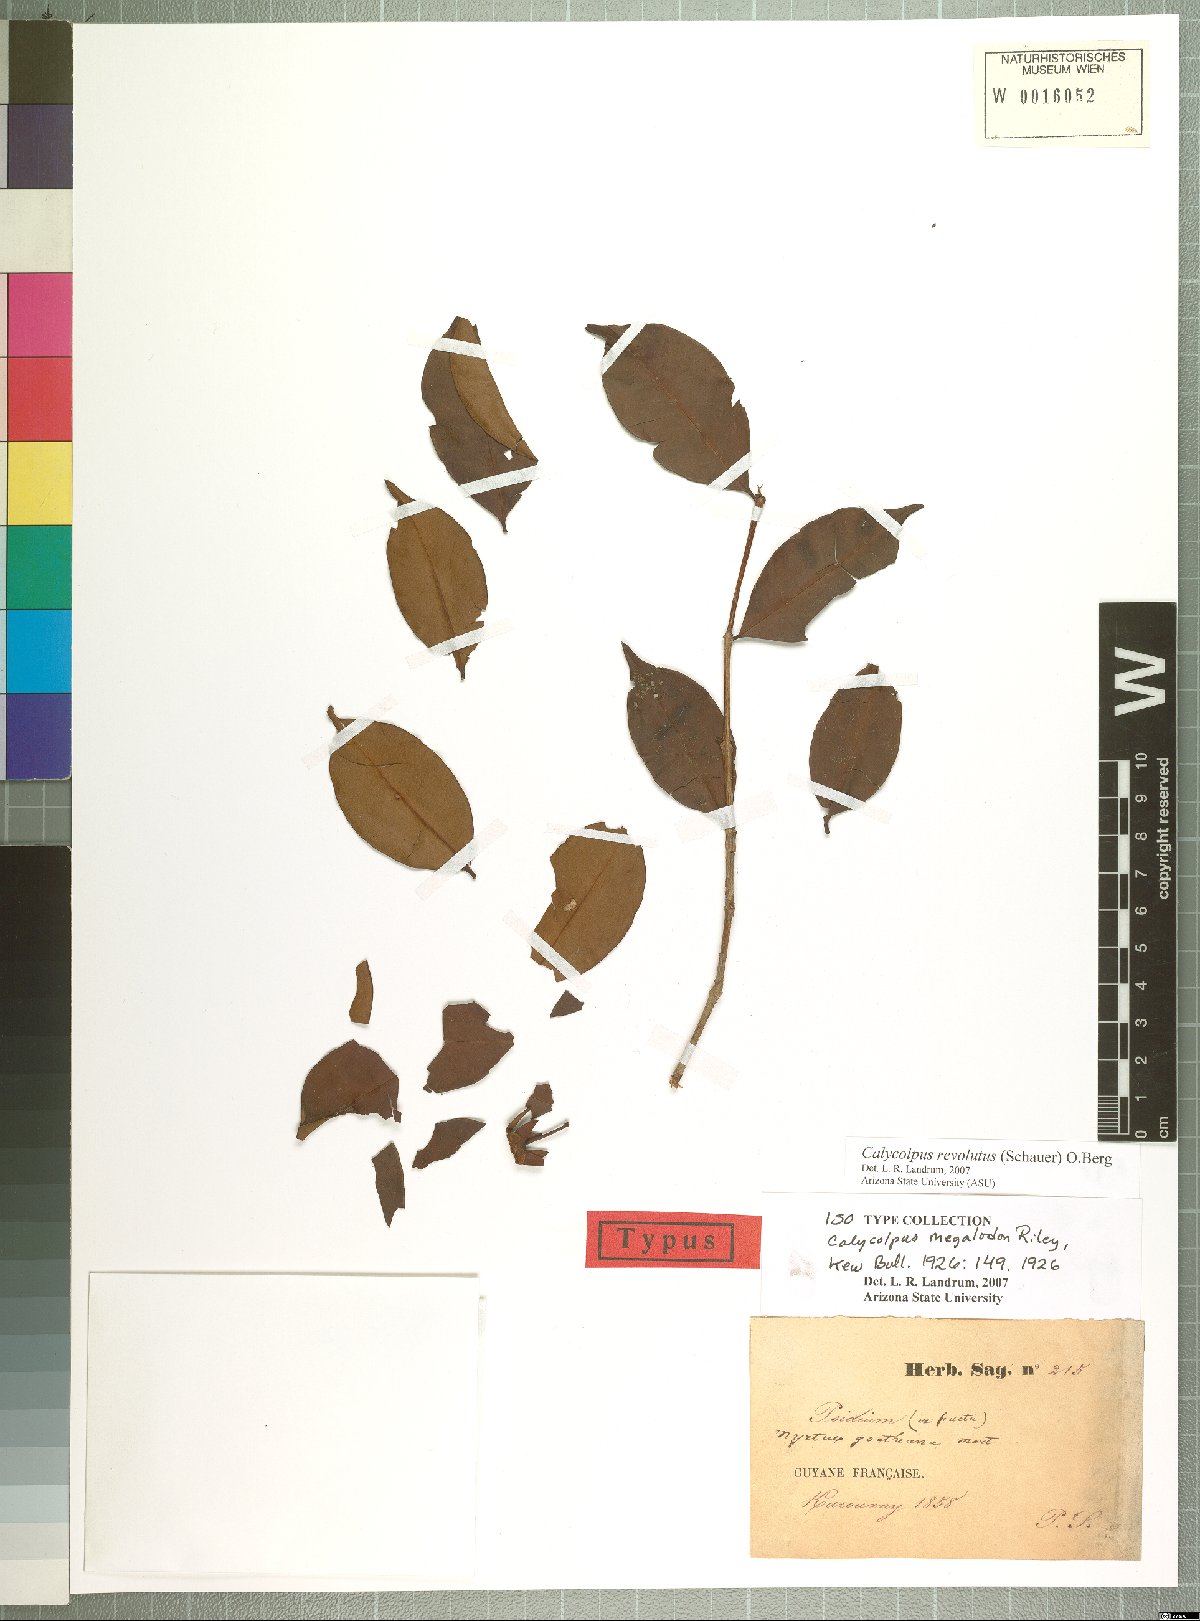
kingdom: Plantae
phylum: Tracheophyta
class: Magnoliopsida
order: Myrtales
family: Myrtaceae
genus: Calycolpus
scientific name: Calycolpus revolutus
